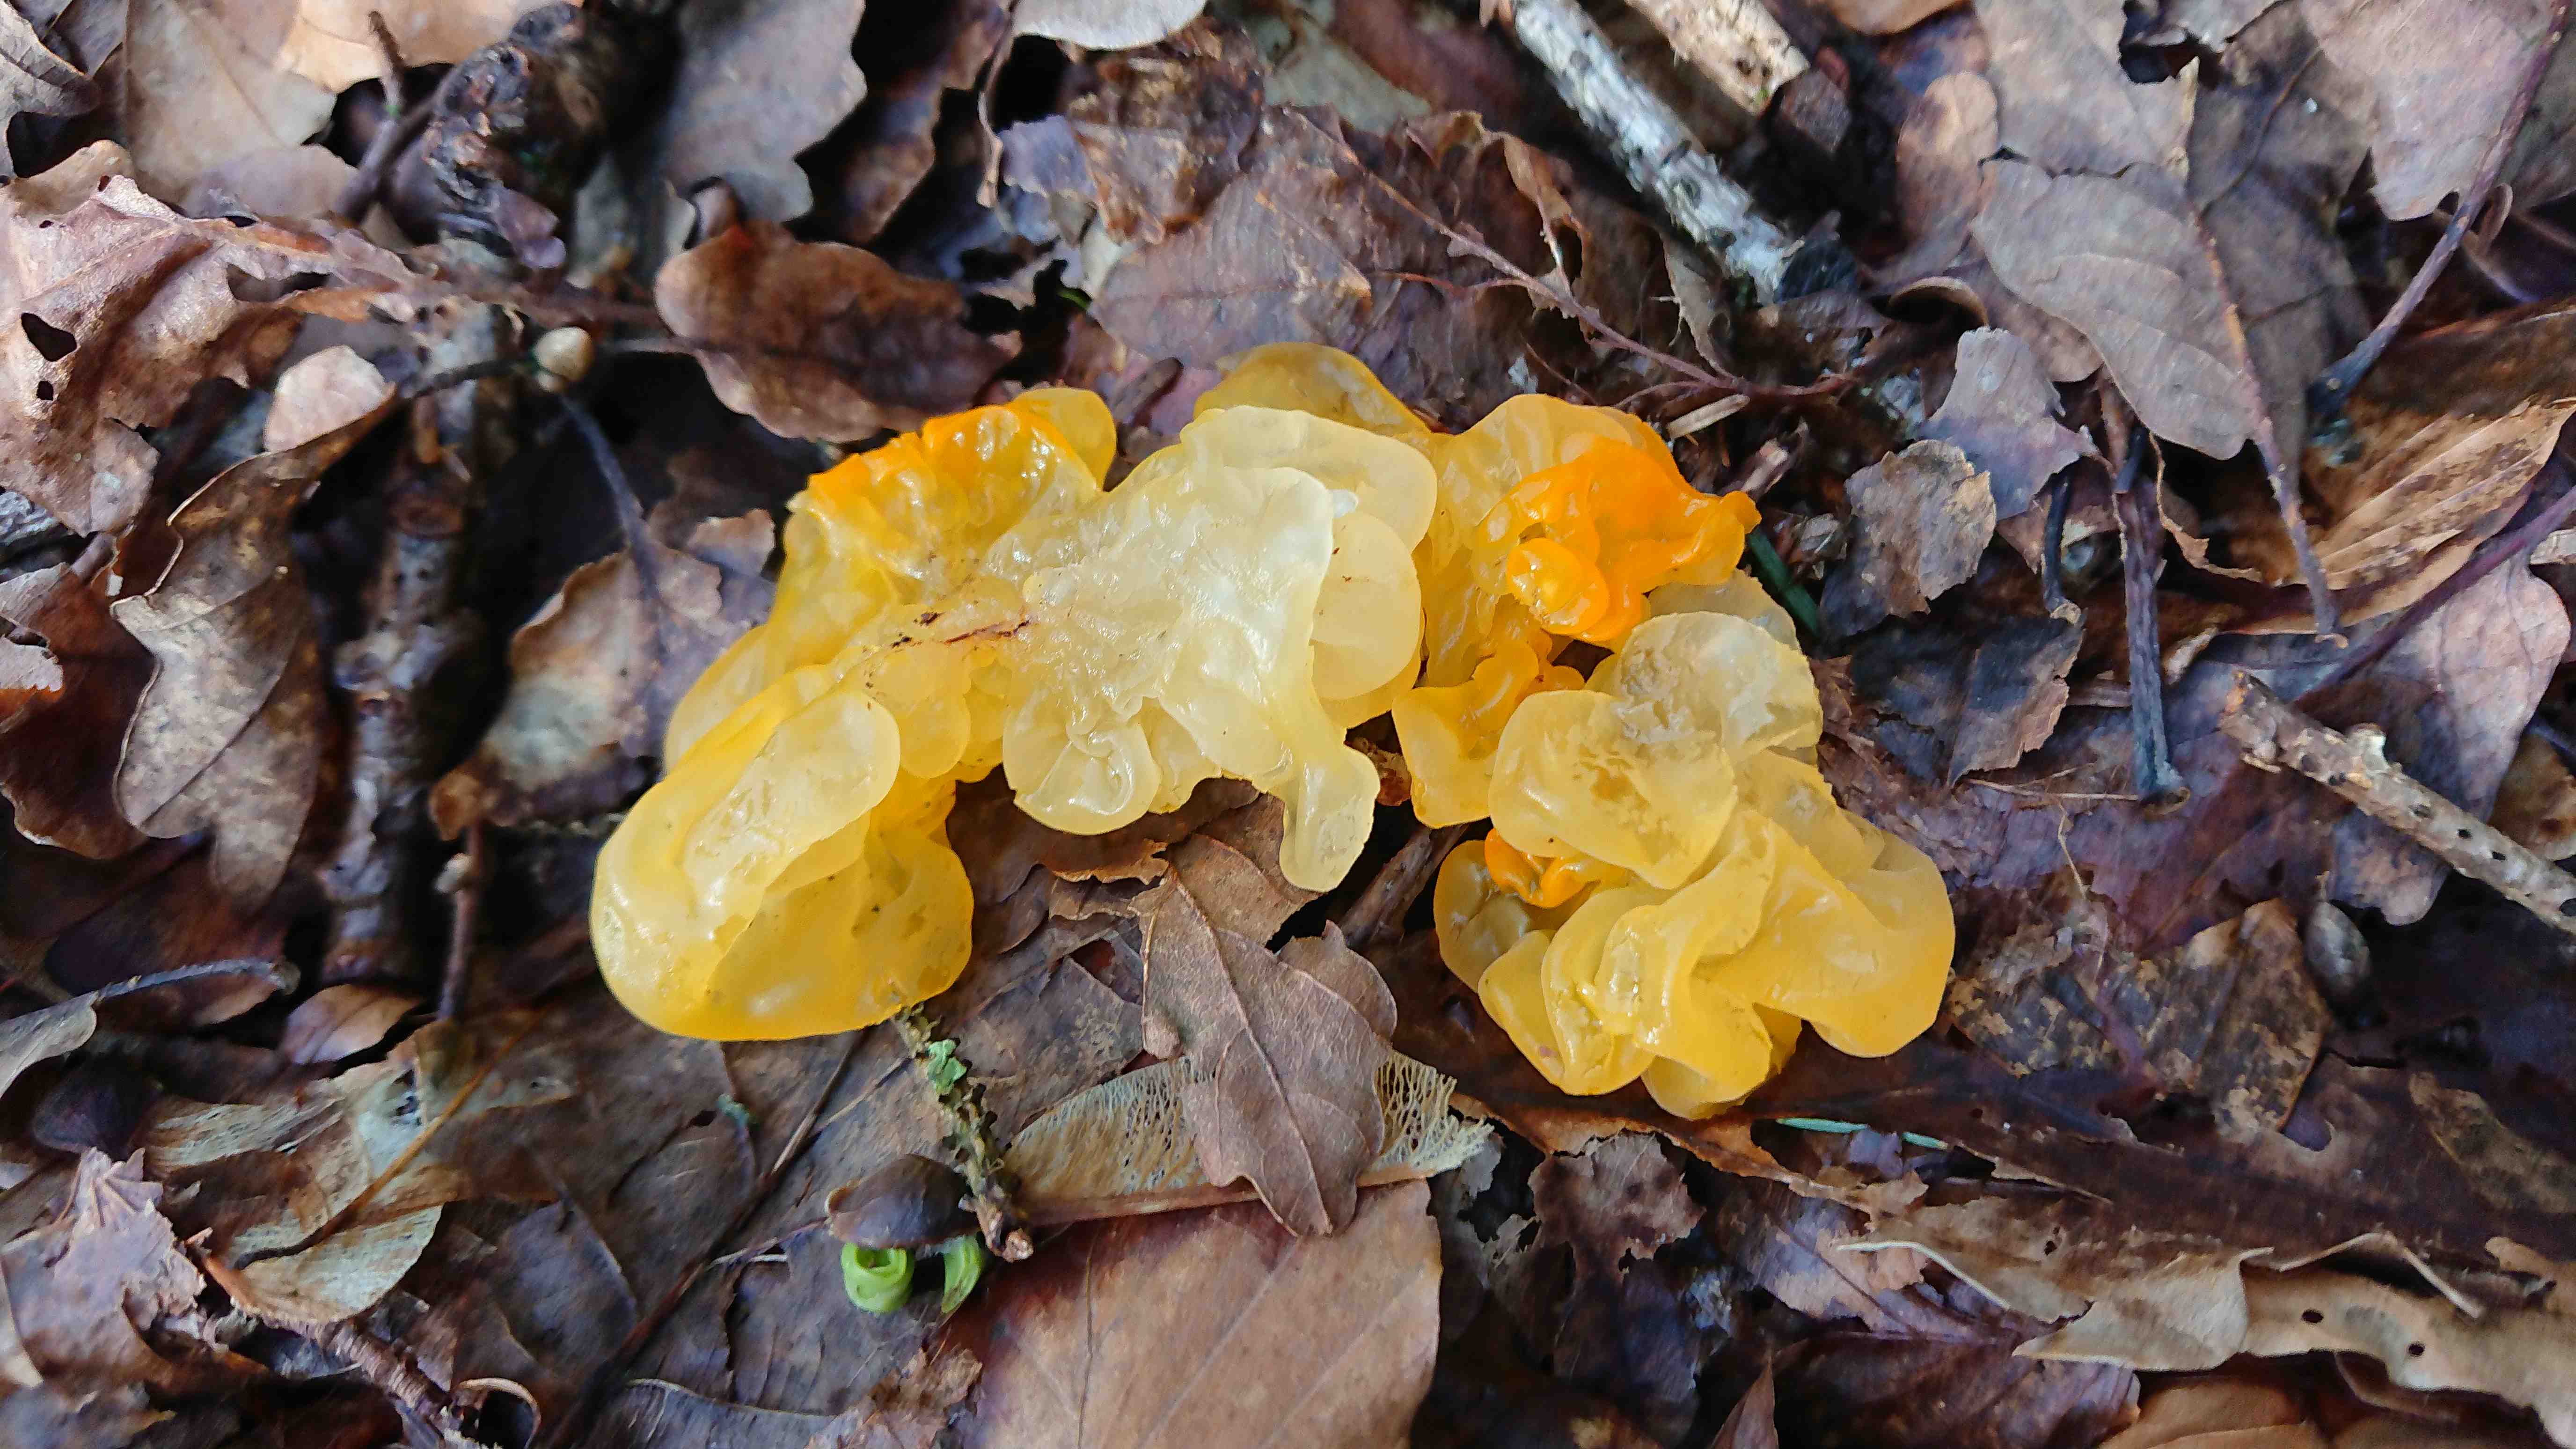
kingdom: Fungi
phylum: Basidiomycota
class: Tremellomycetes
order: Tremellales
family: Tremellaceae
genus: Tremella
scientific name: Tremella mesenterica
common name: gul bævresvamp
